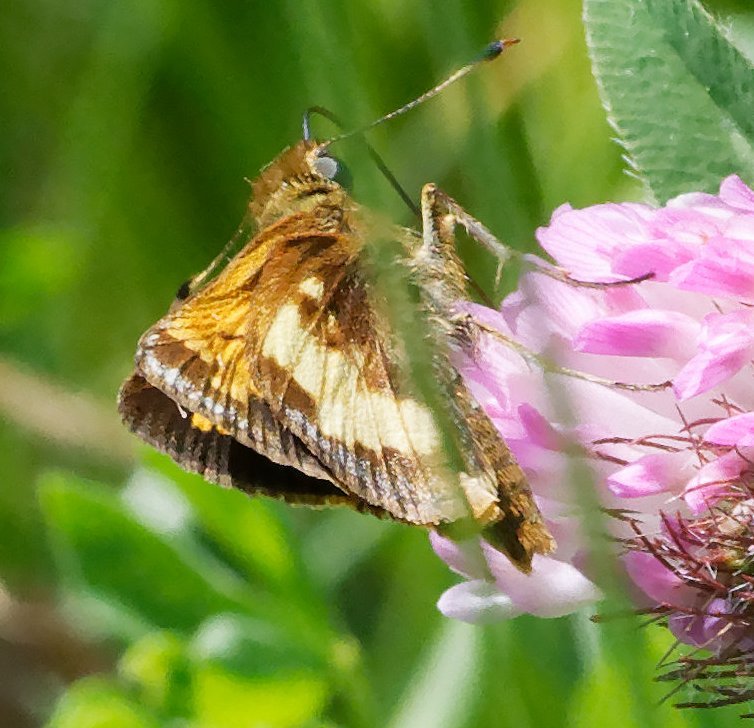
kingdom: Animalia
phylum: Arthropoda
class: Insecta
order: Lepidoptera
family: Hesperiidae
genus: Lon
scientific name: Lon hobomok
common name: Hobomok Skipper
